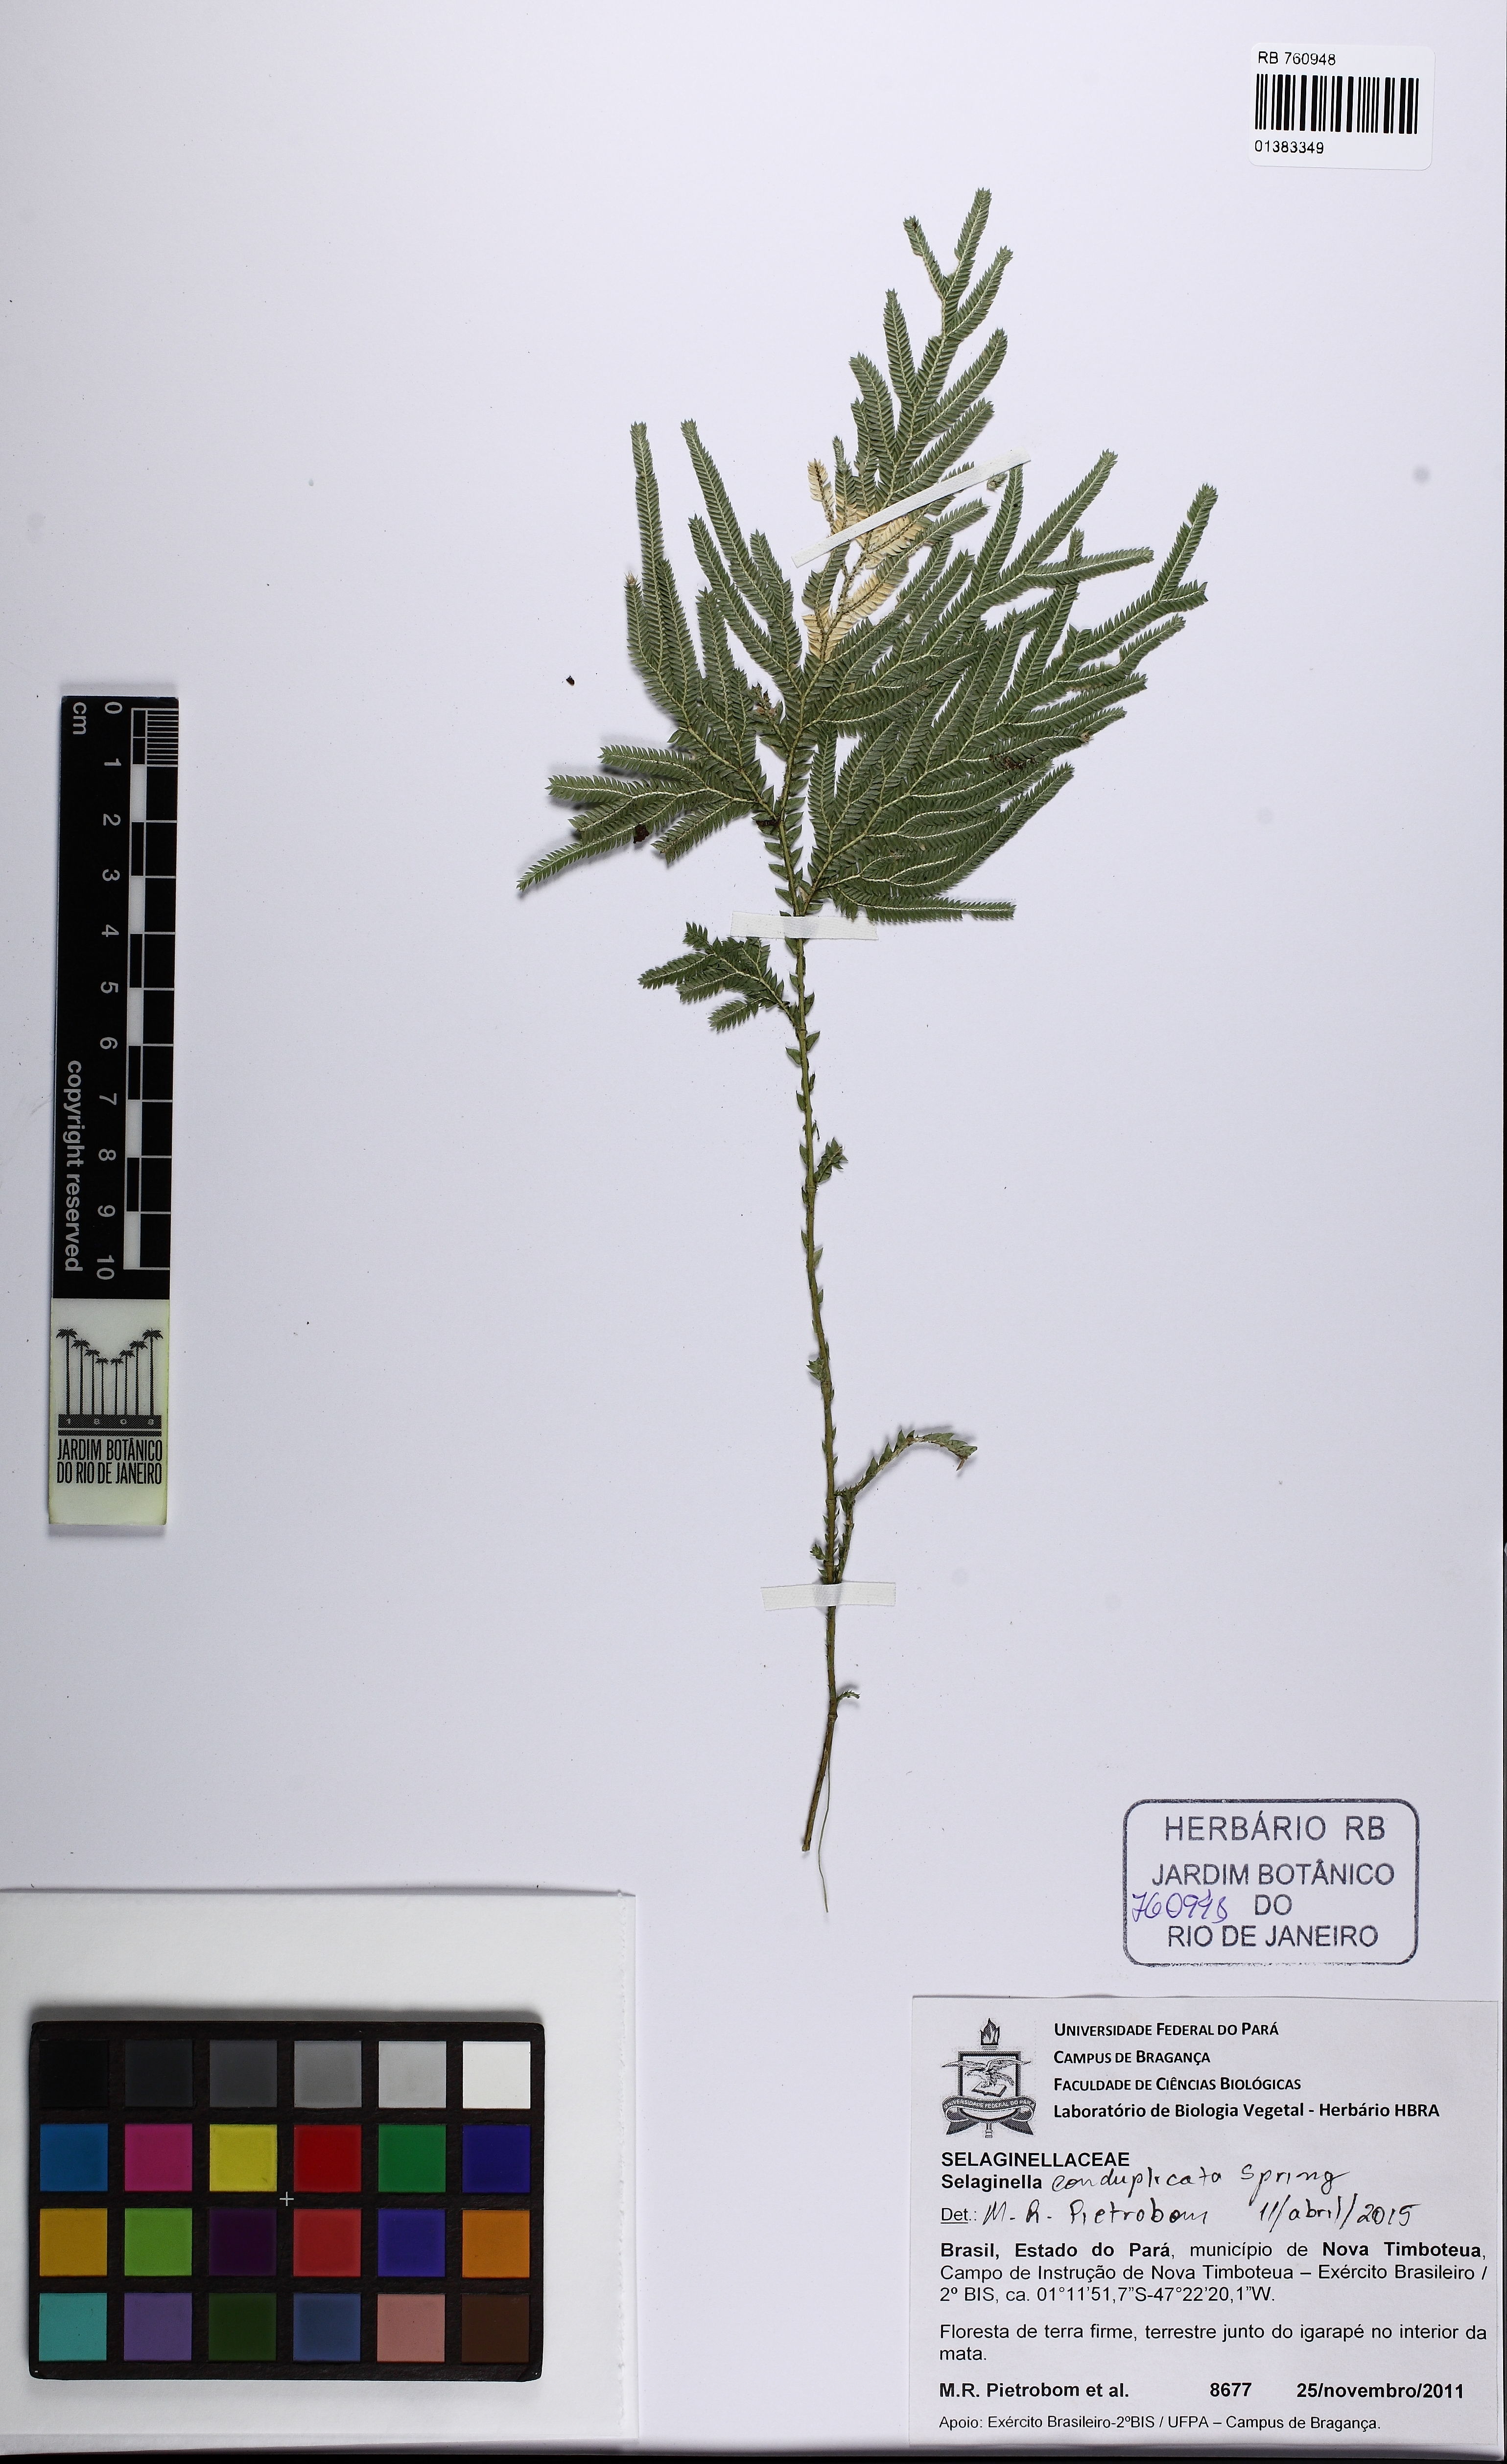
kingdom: Plantae
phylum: Tracheophyta
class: Lycopodiopsida
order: Selaginellales
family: Selaginellaceae
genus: Selaginella
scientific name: Selaginella conduplicata
